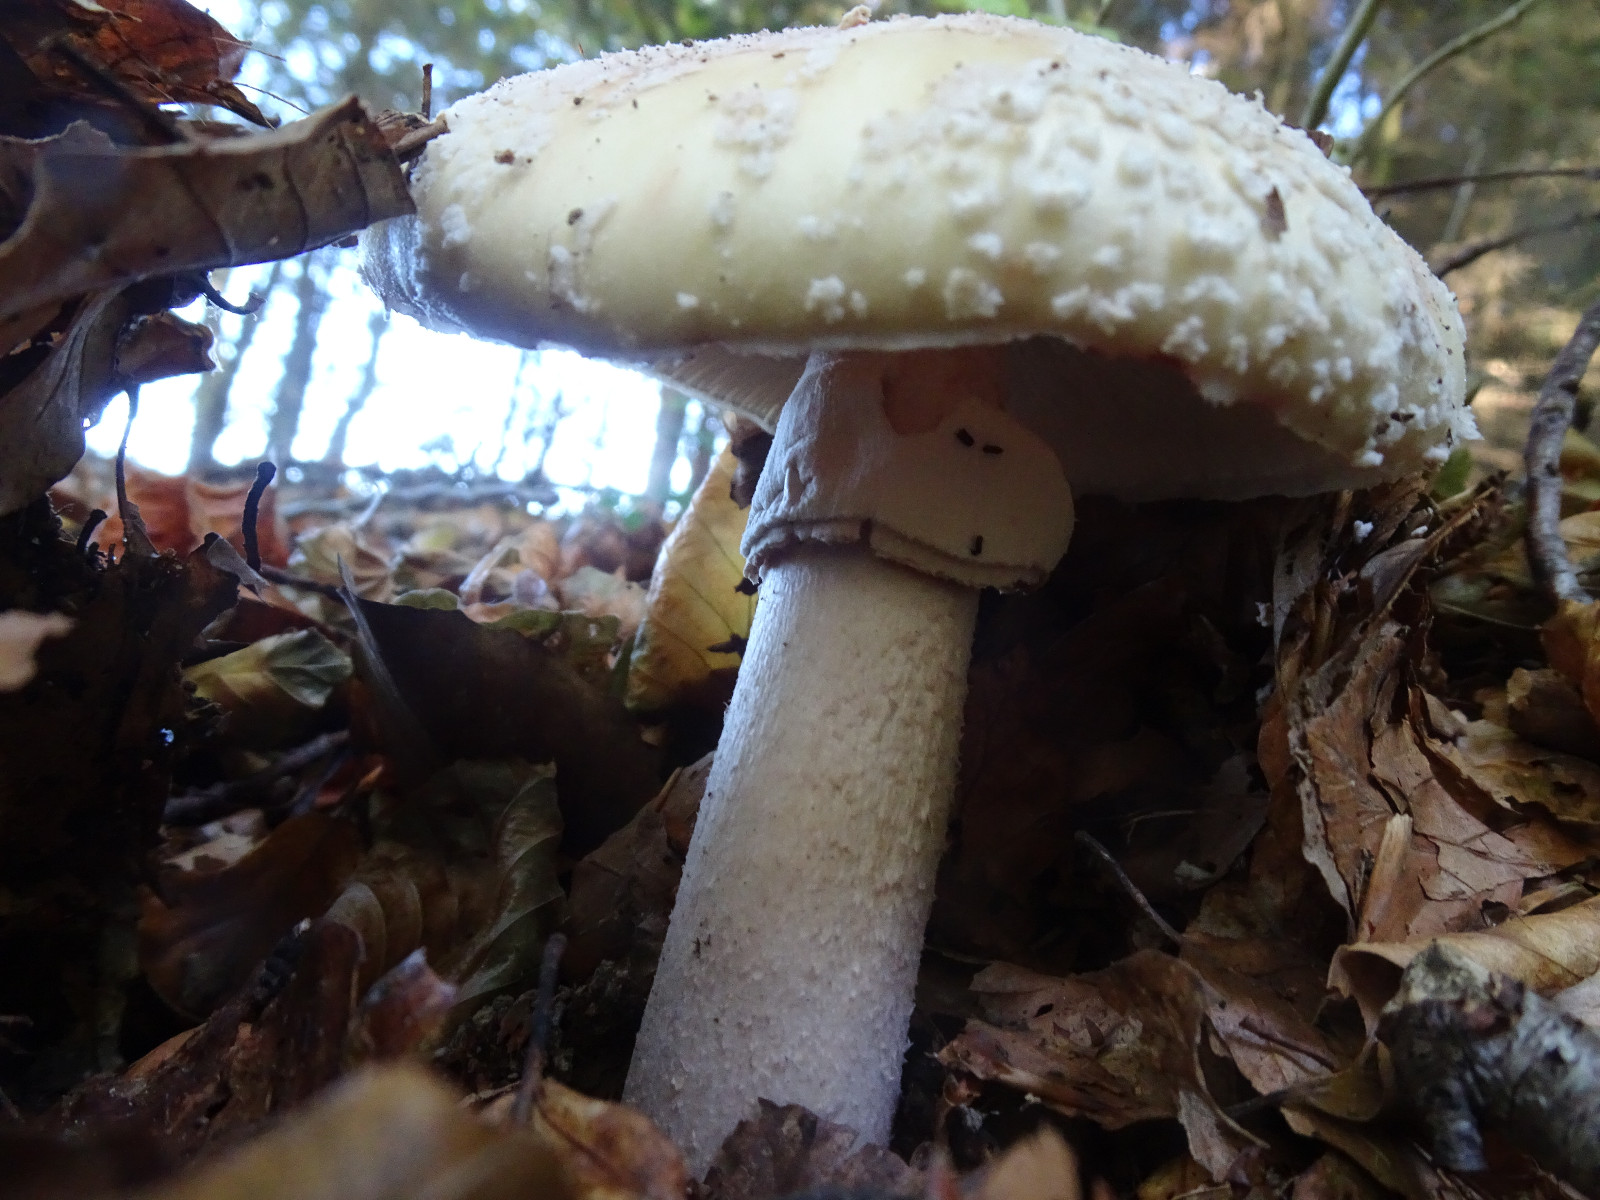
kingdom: Fungi
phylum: Basidiomycota
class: Agaricomycetes
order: Agaricales
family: Amanitaceae
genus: Amanita
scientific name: Amanita rubescens
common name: rødmende fluesvamp
